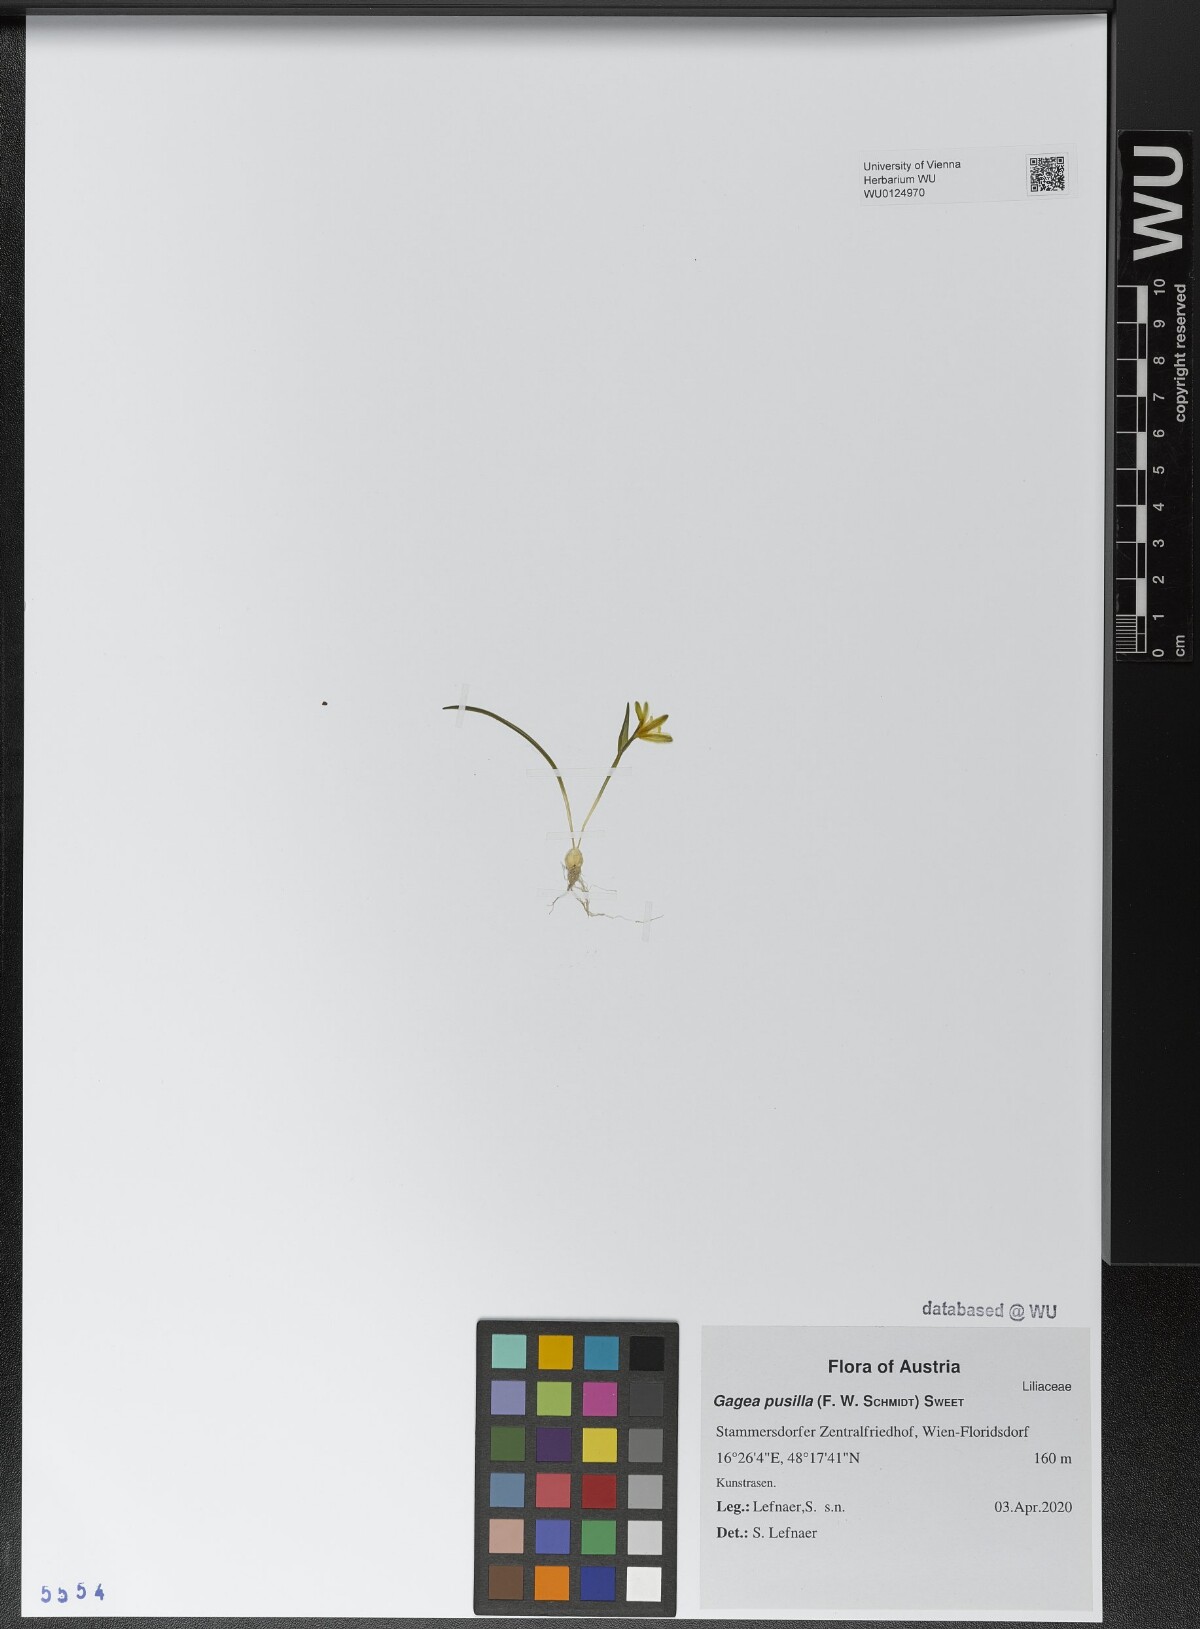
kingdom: Plantae
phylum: Tracheophyta
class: Liliopsida
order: Liliales
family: Liliaceae
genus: Gagea
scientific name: Gagea pusilla
